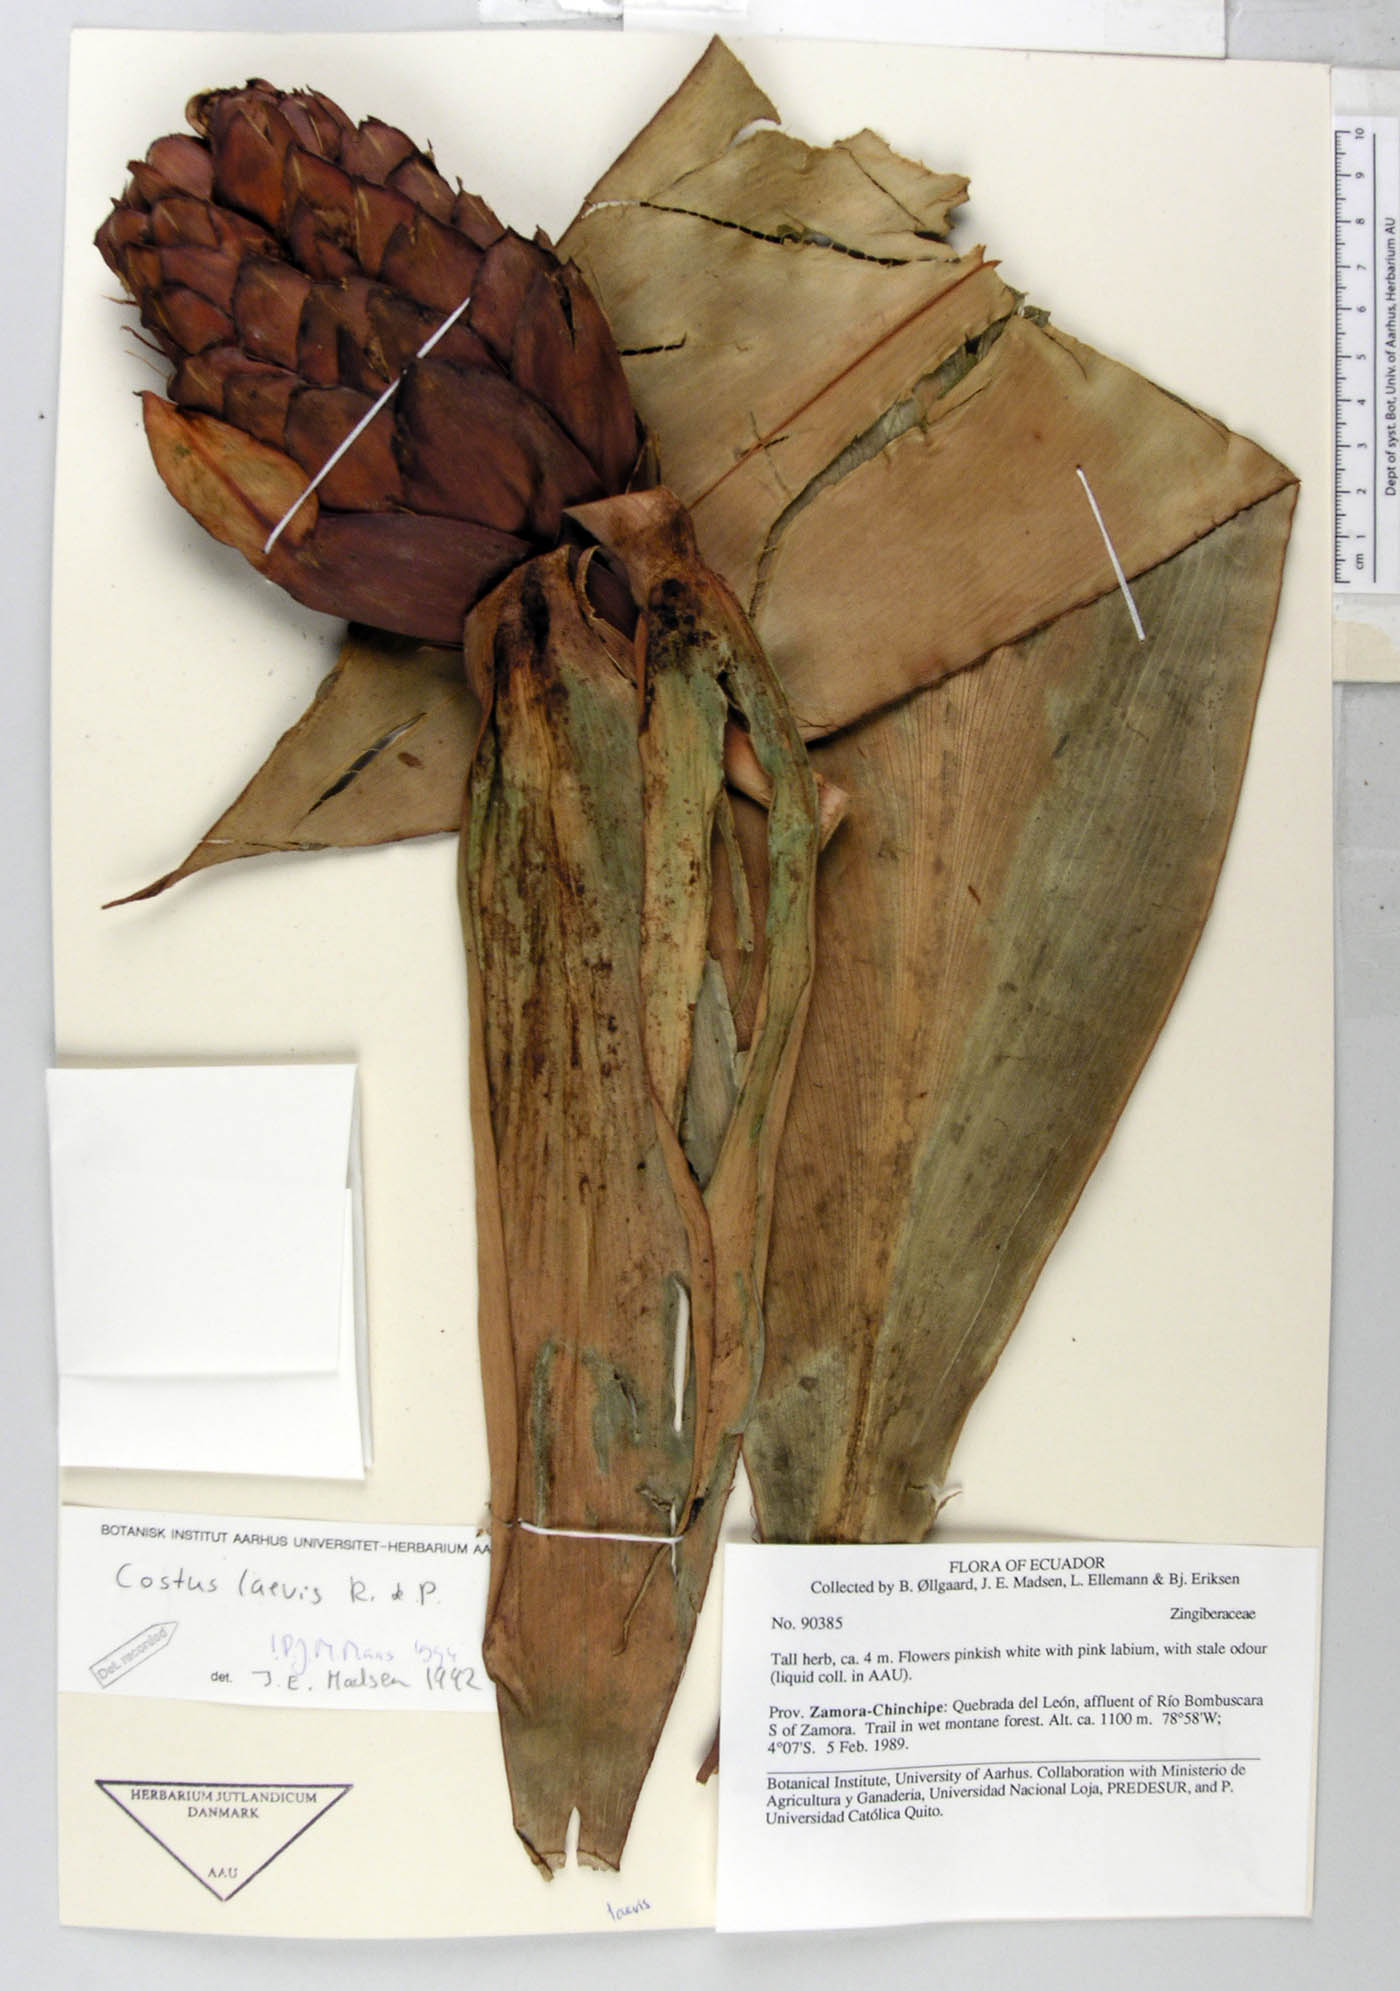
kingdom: Plantae
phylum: Tracheophyta
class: Liliopsida
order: Zingiberales
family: Costaceae
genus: Costus
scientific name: Costus laevis
